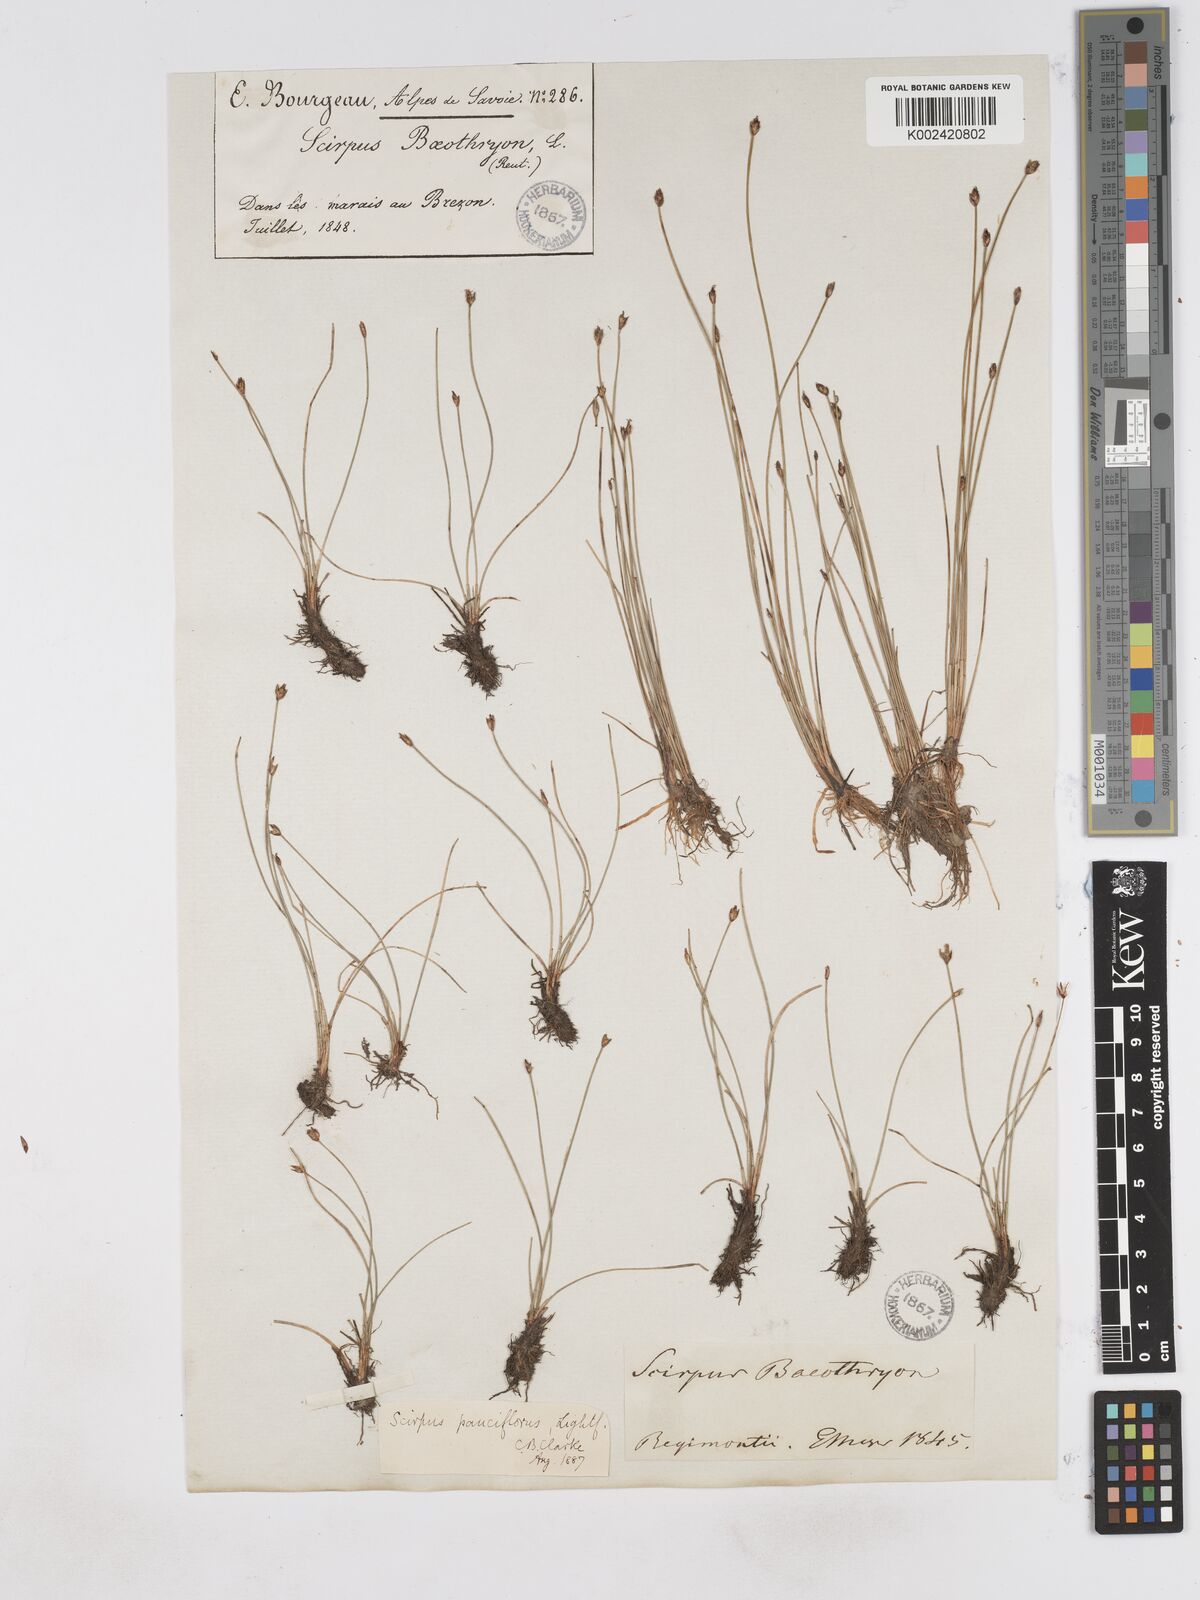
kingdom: Plantae
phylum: Tracheophyta
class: Liliopsida
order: Poales
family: Cyperaceae
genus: Eleocharis
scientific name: Eleocharis quinqueflora
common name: Few-flowered spike-rush
